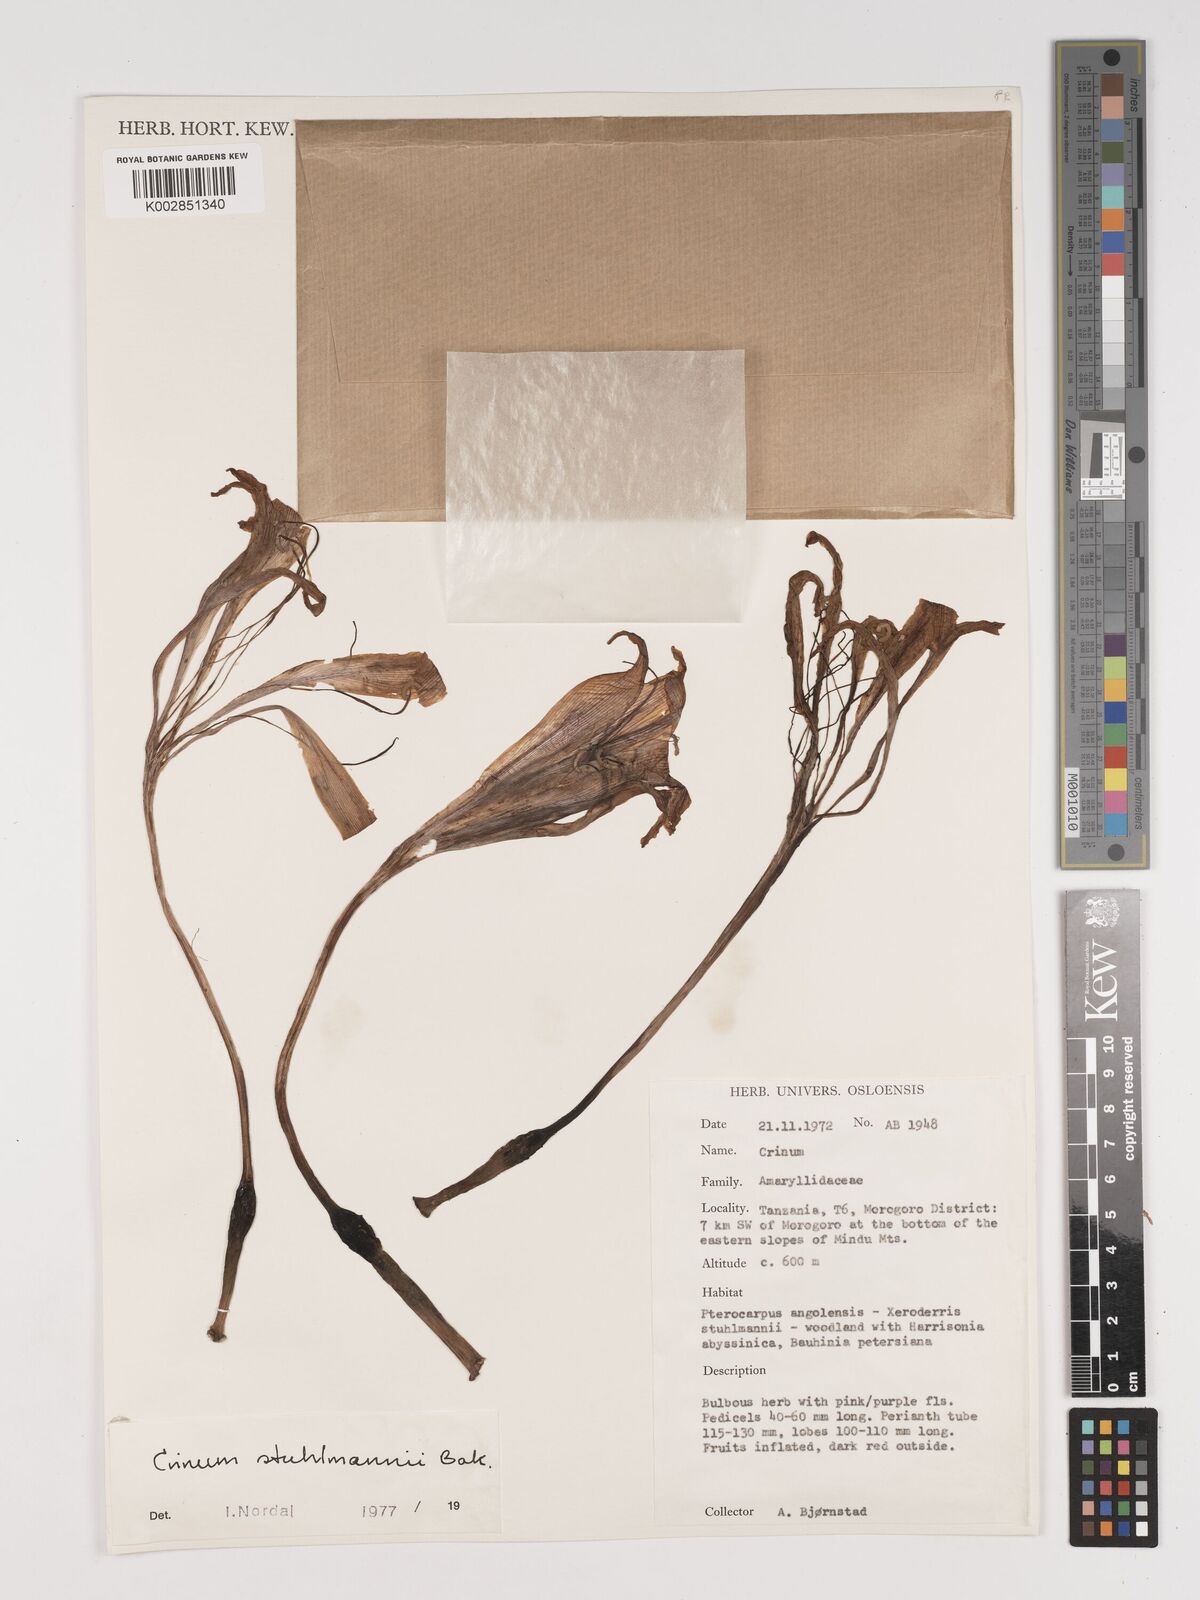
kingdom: Plantae
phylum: Tracheophyta
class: Liliopsida
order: Asparagales
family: Amaryllidaceae
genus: Crinum
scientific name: Crinum stuhlmannii
